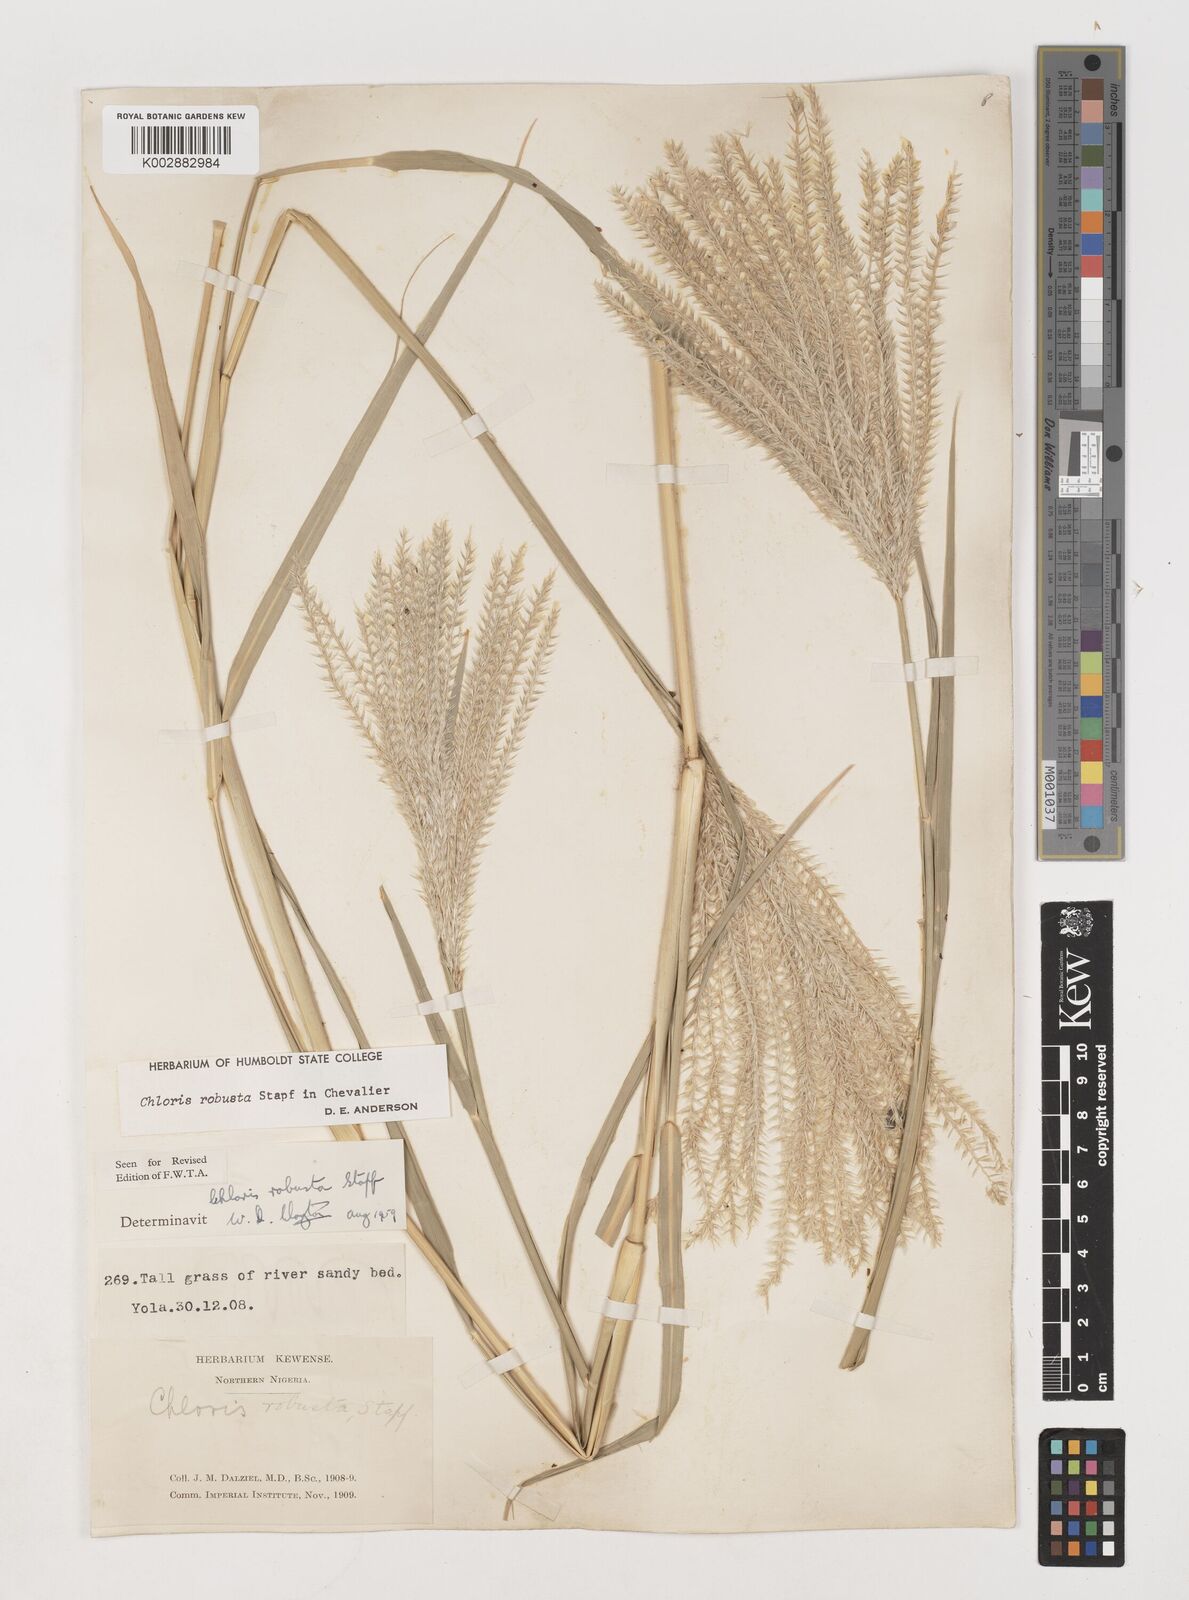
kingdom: Plantae
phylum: Tracheophyta
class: Liliopsida
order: Poales
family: Poaceae
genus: Chloris
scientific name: Chloris robusta
